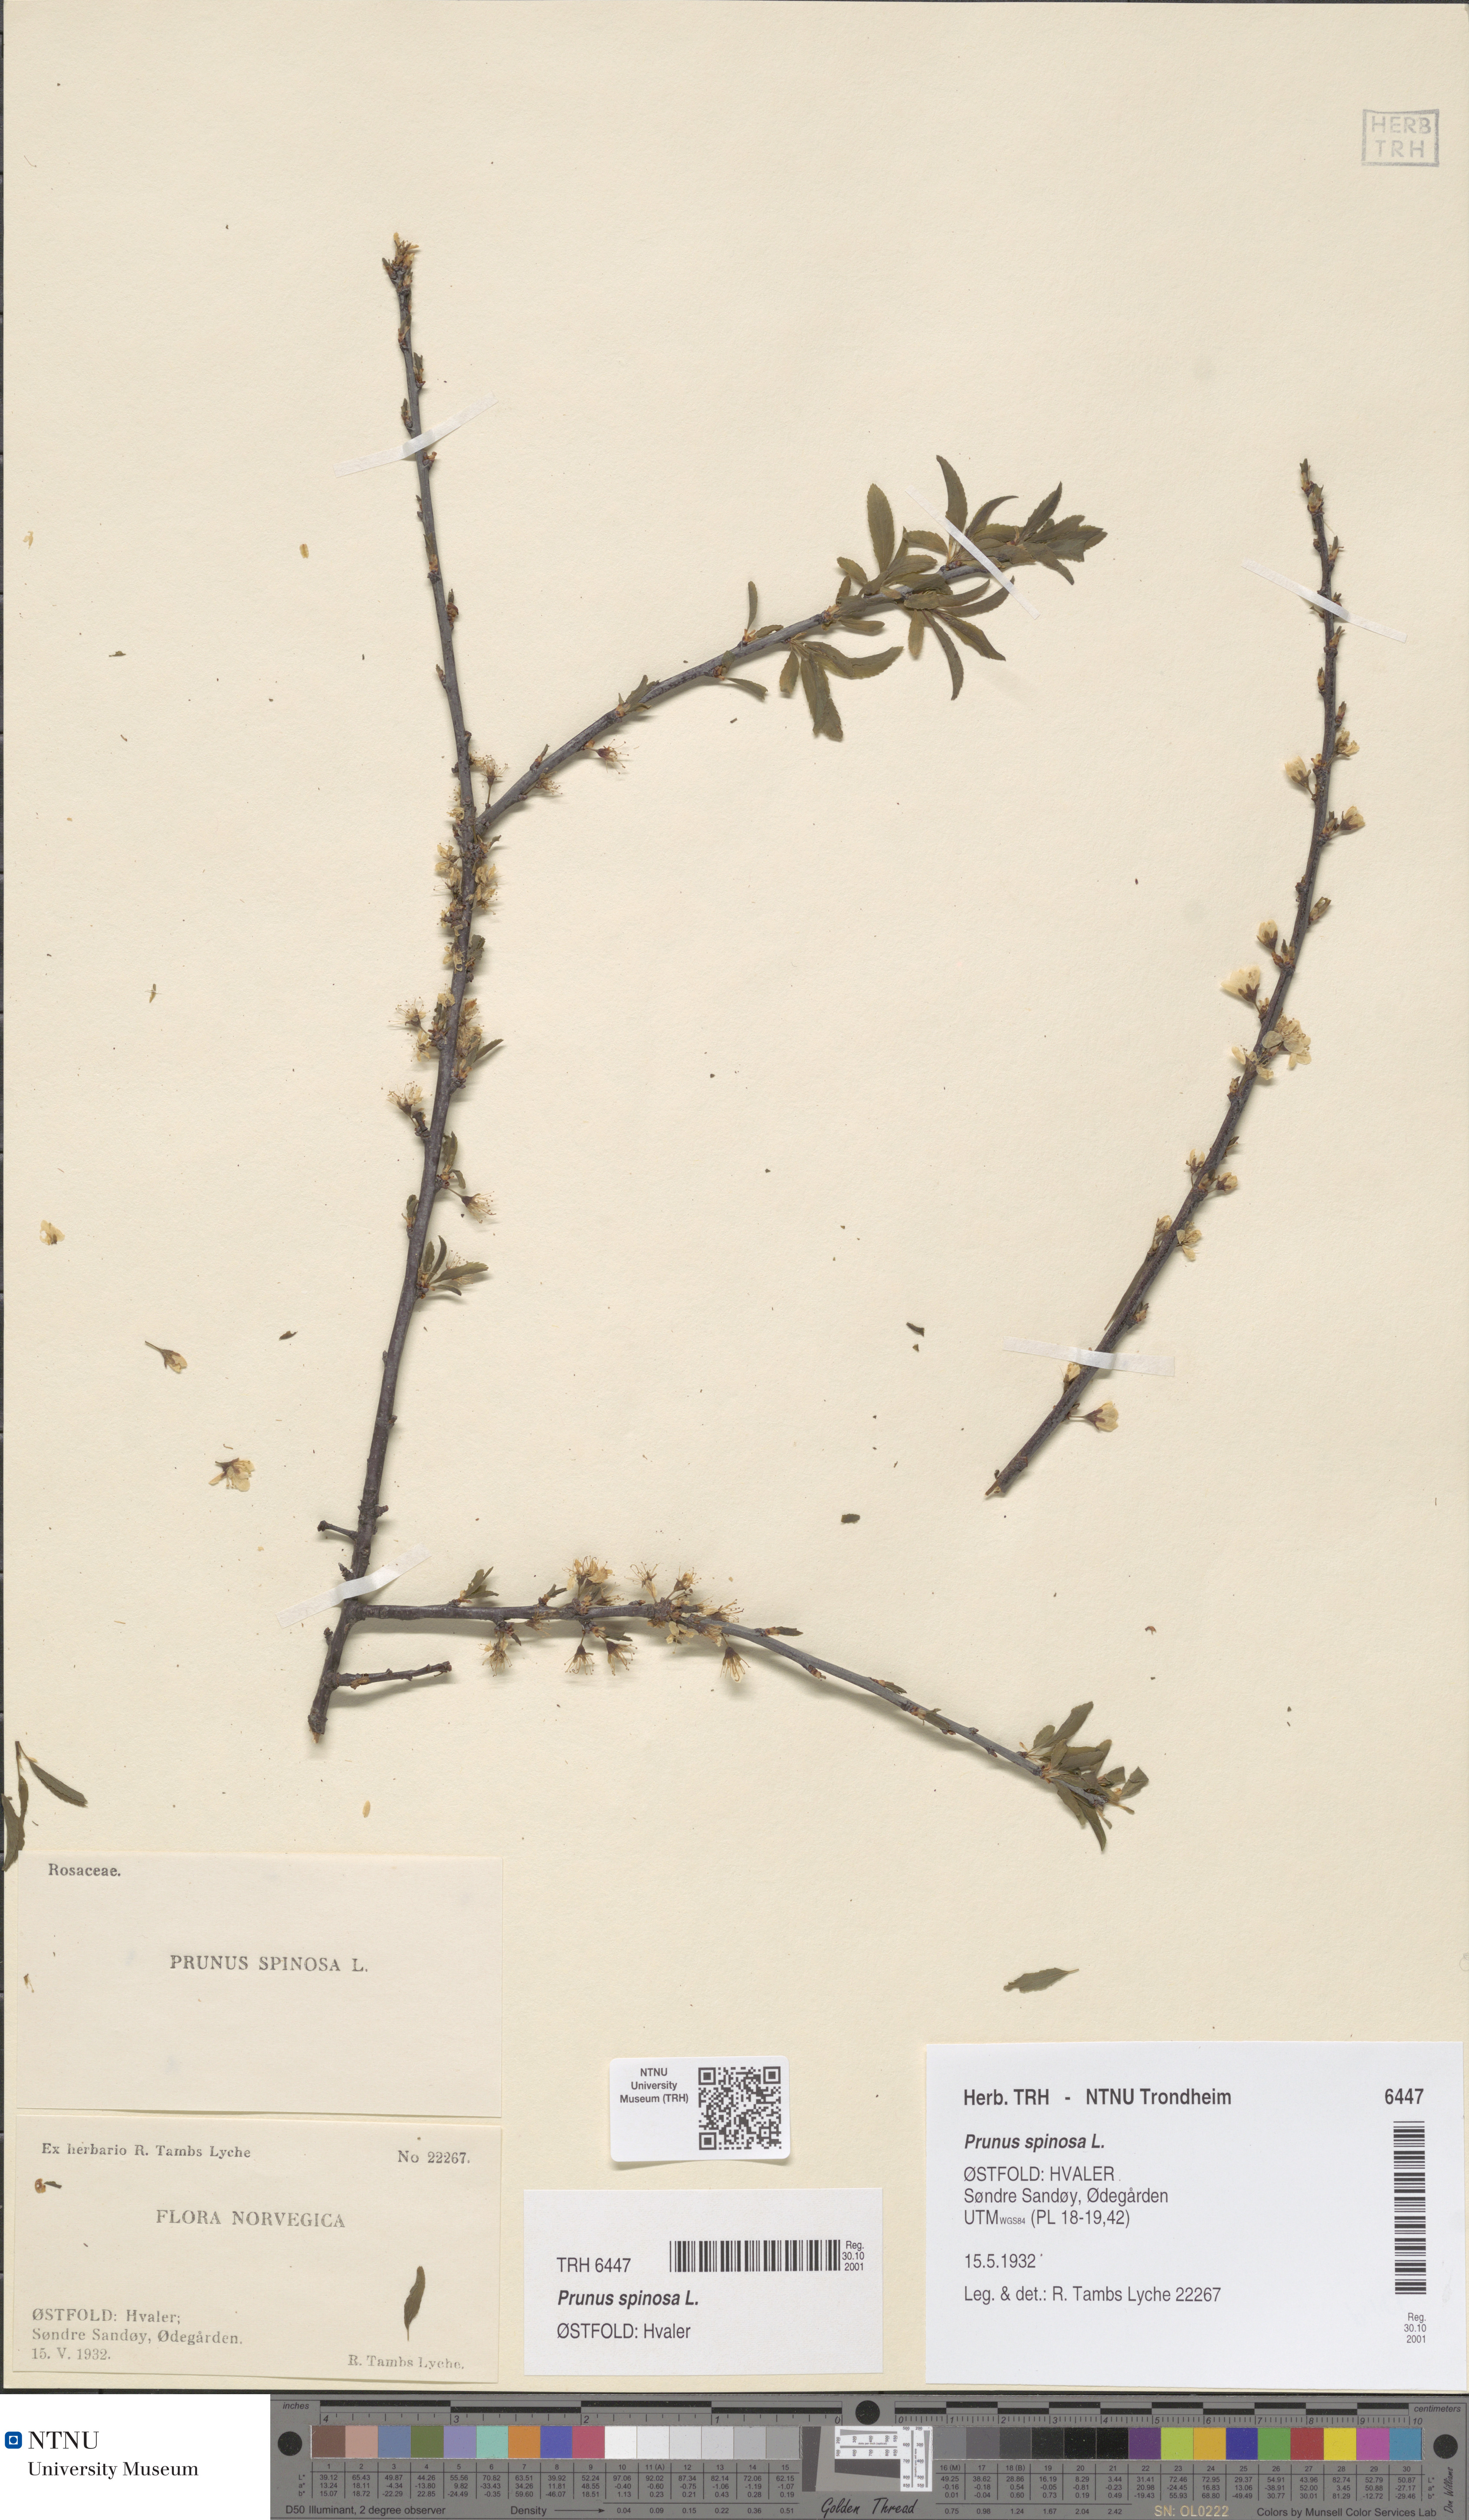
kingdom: Plantae
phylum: Tracheophyta
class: Magnoliopsida
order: Rosales
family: Rosaceae
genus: Prunus
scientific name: Prunus spinosa
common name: Blackthorn
